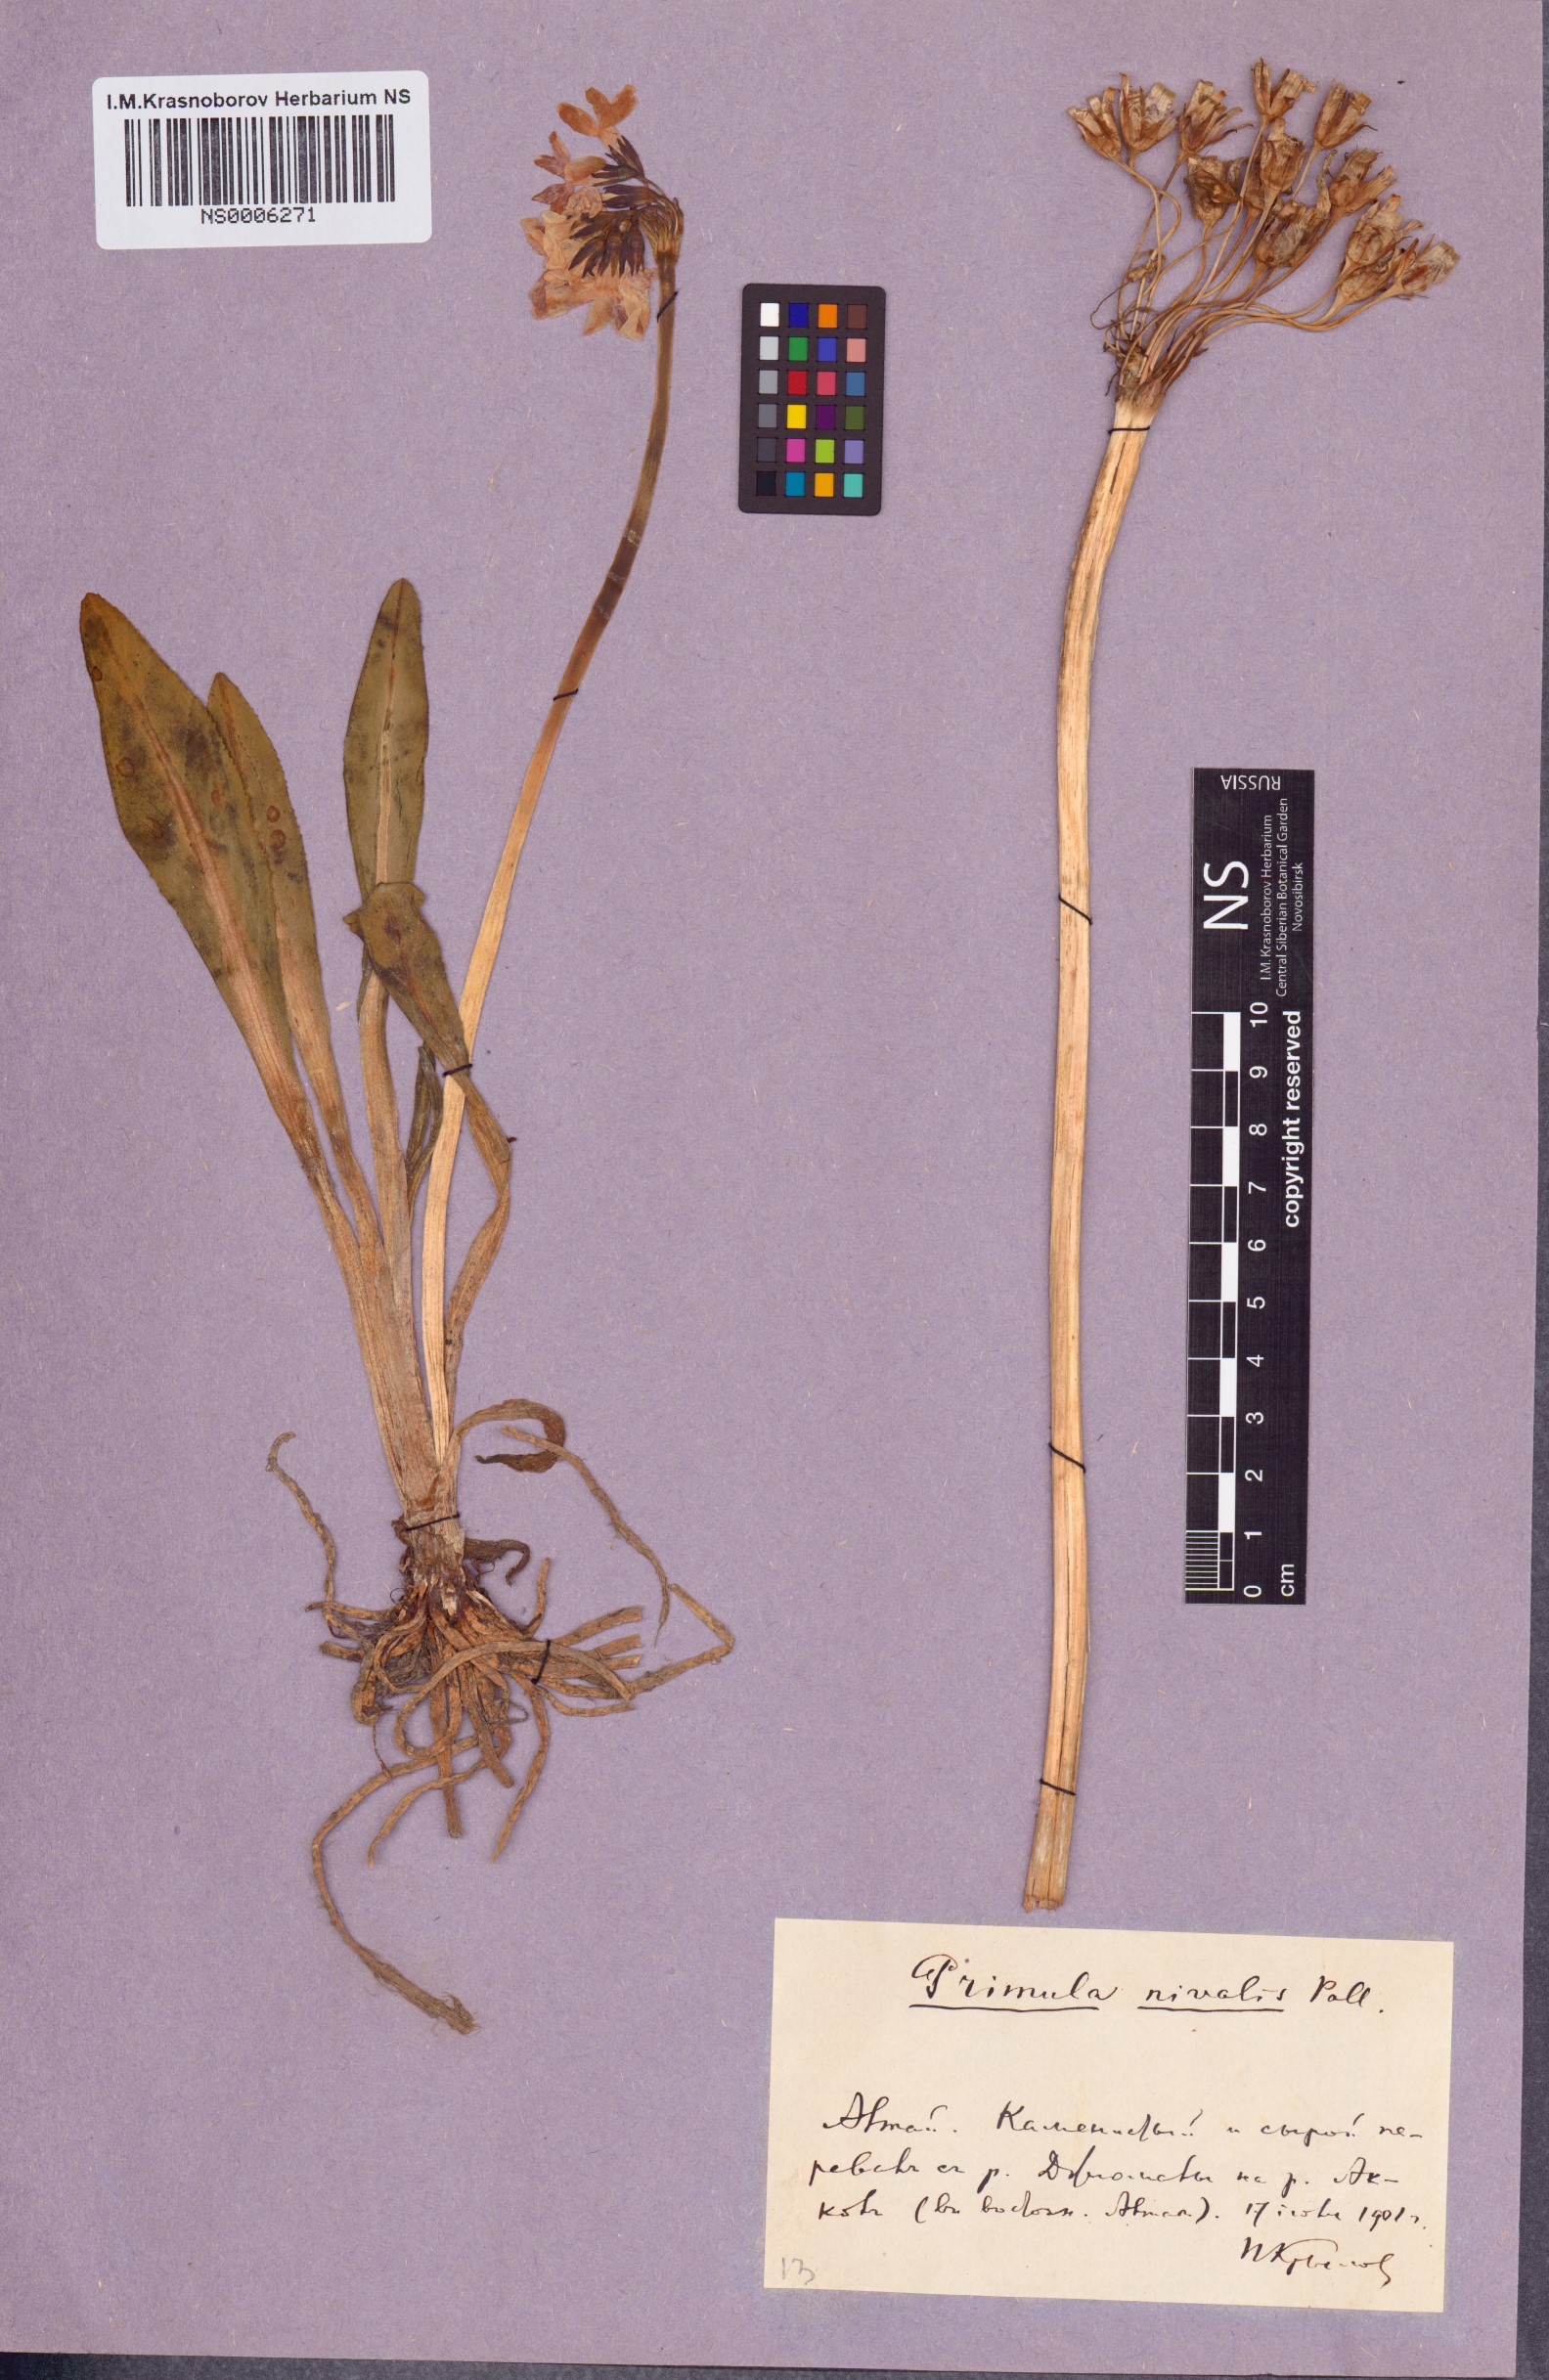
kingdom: Plantae
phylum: Tracheophyta
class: Magnoliopsida
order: Ericales
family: Primulaceae
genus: Primula
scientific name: Primula nivalis
